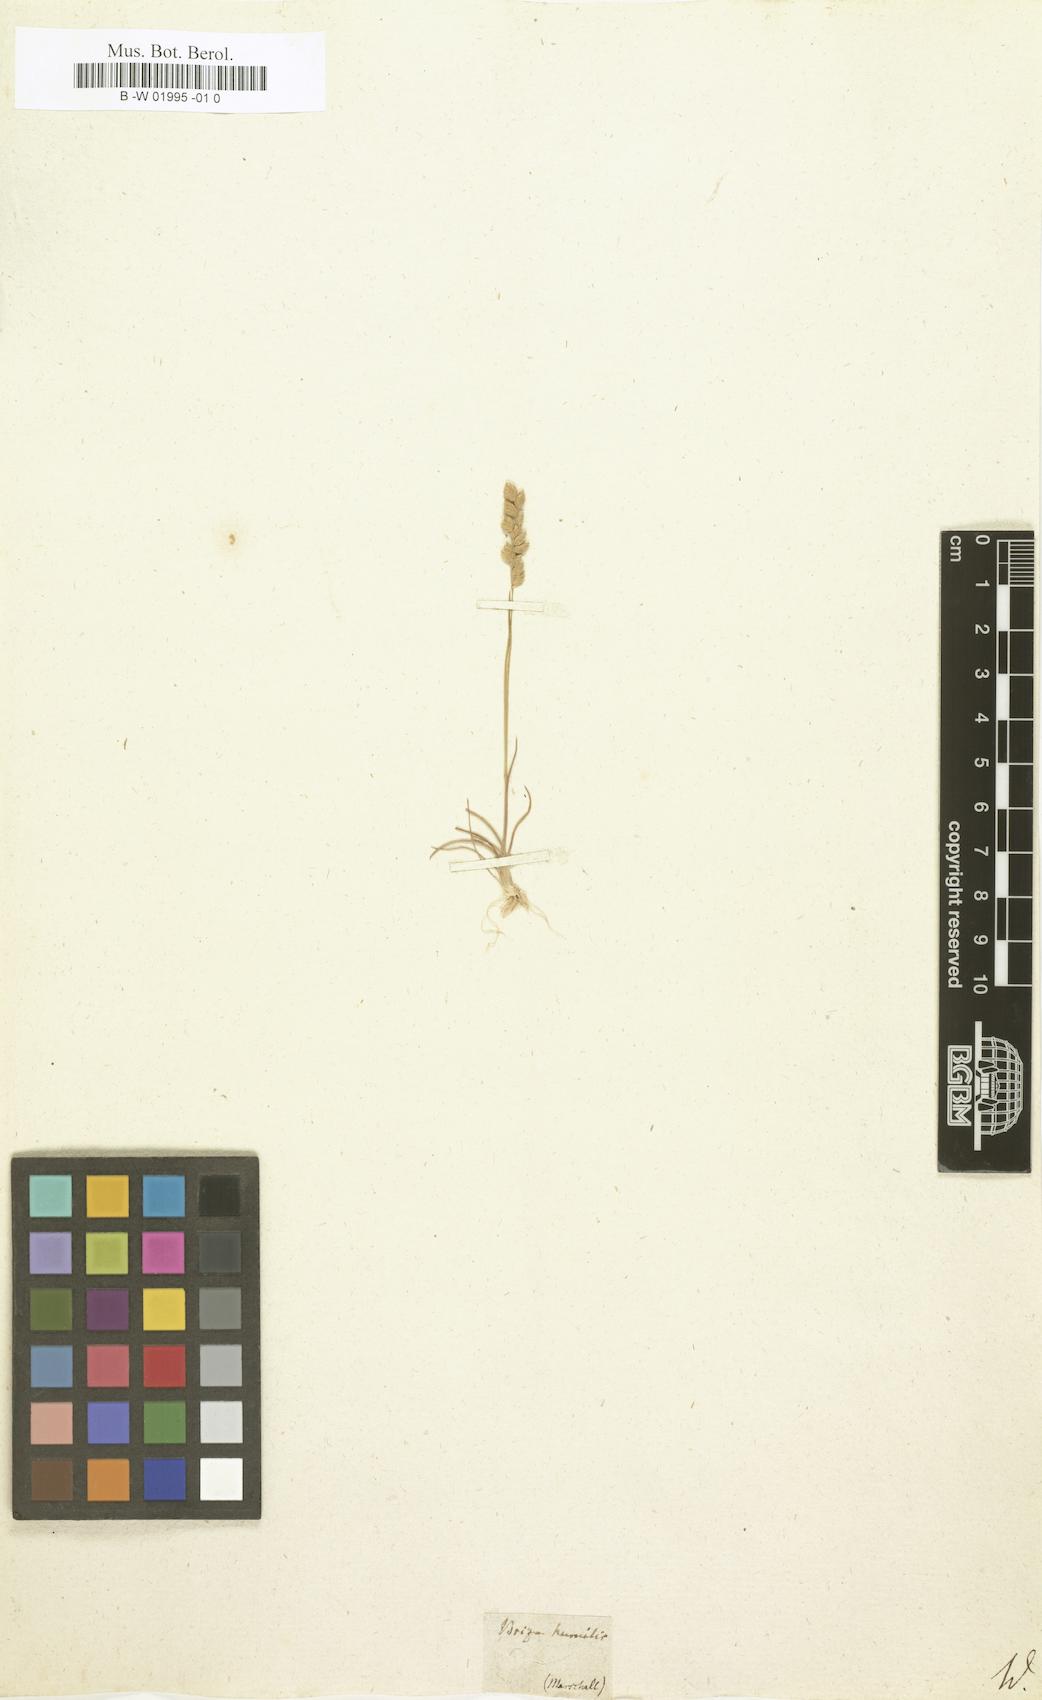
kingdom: Plantae
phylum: Tracheophyta
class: Liliopsida
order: Poales
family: Poaceae
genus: Briza
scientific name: Briza humilis
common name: Spiked quaking grass
